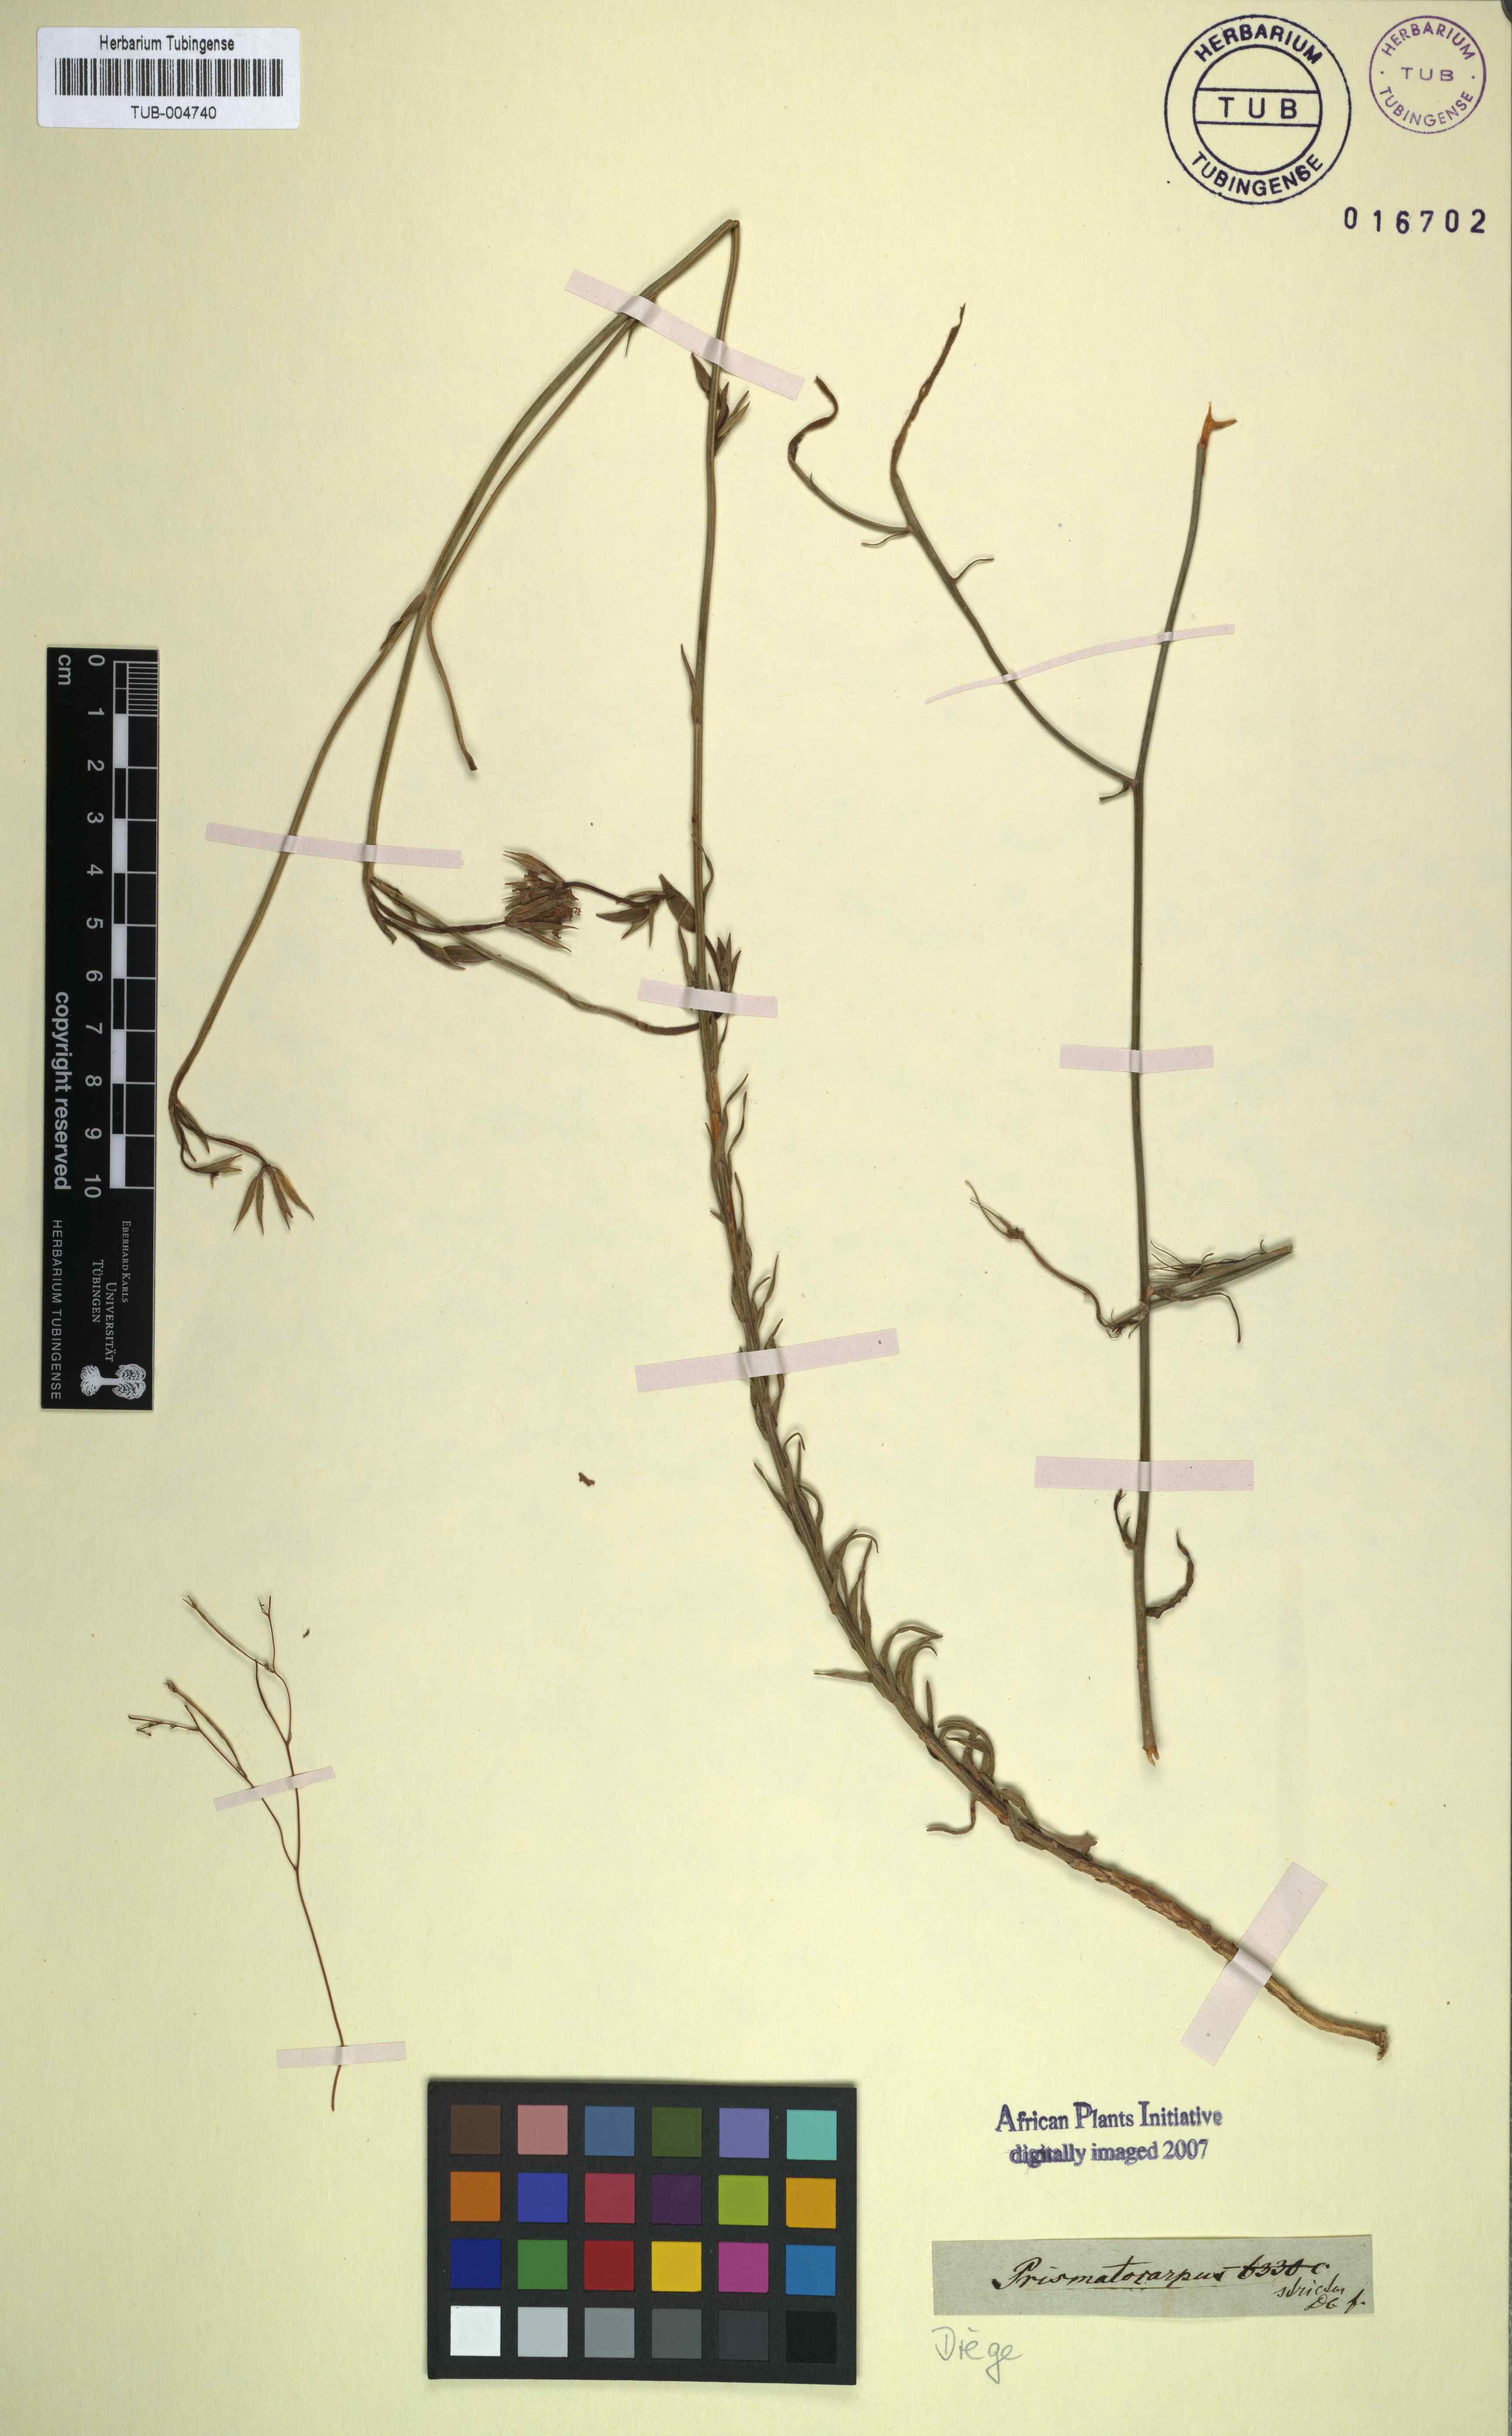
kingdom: Plantae
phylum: Tracheophyta
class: Magnoliopsida
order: Asterales
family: Campanulaceae
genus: Prismatocarpus
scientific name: Prismatocarpus campanuloides
